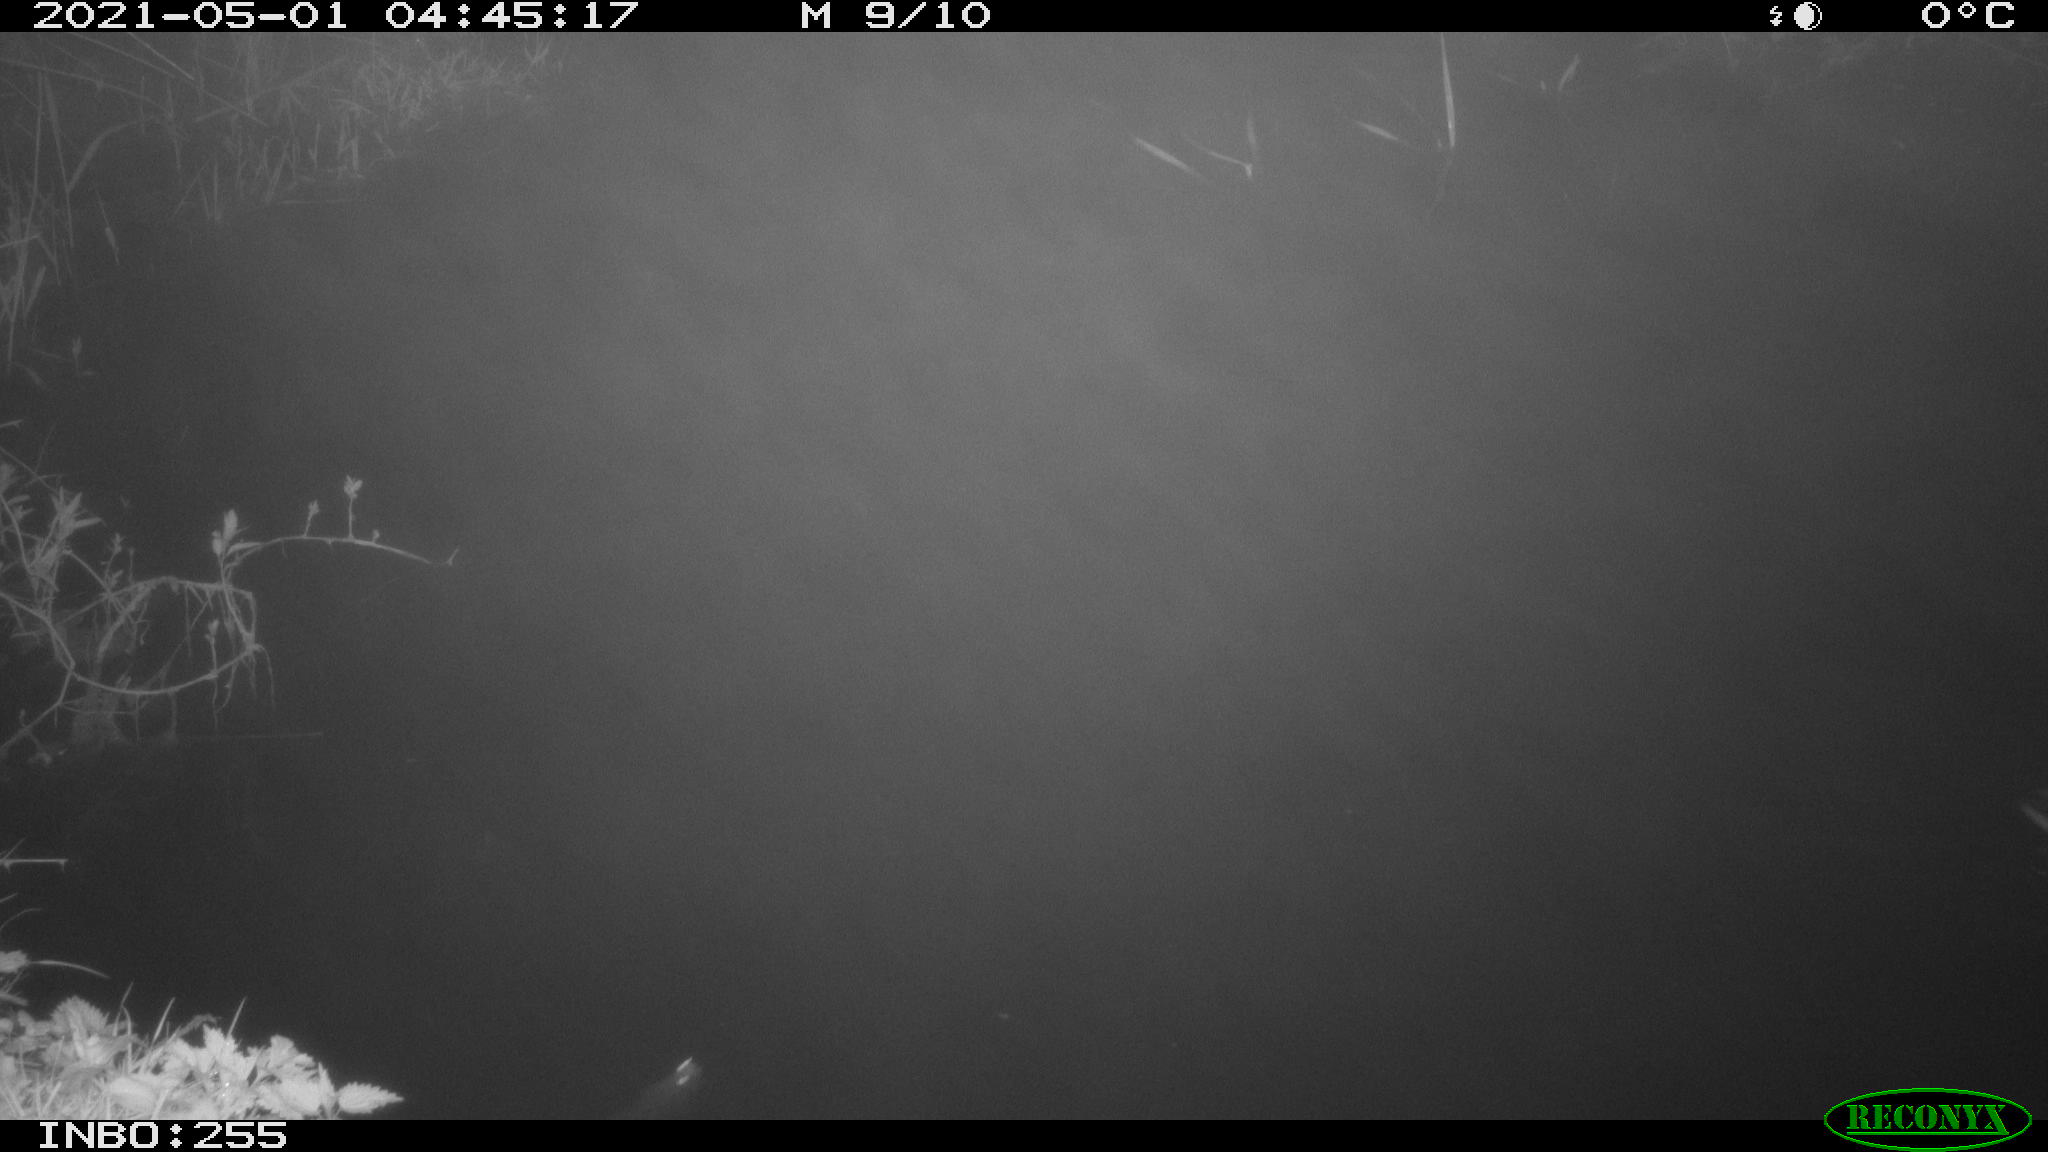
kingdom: Animalia
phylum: Chordata
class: Aves
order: Anseriformes
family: Anatidae
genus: Anas
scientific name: Anas platyrhynchos
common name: Mallard
